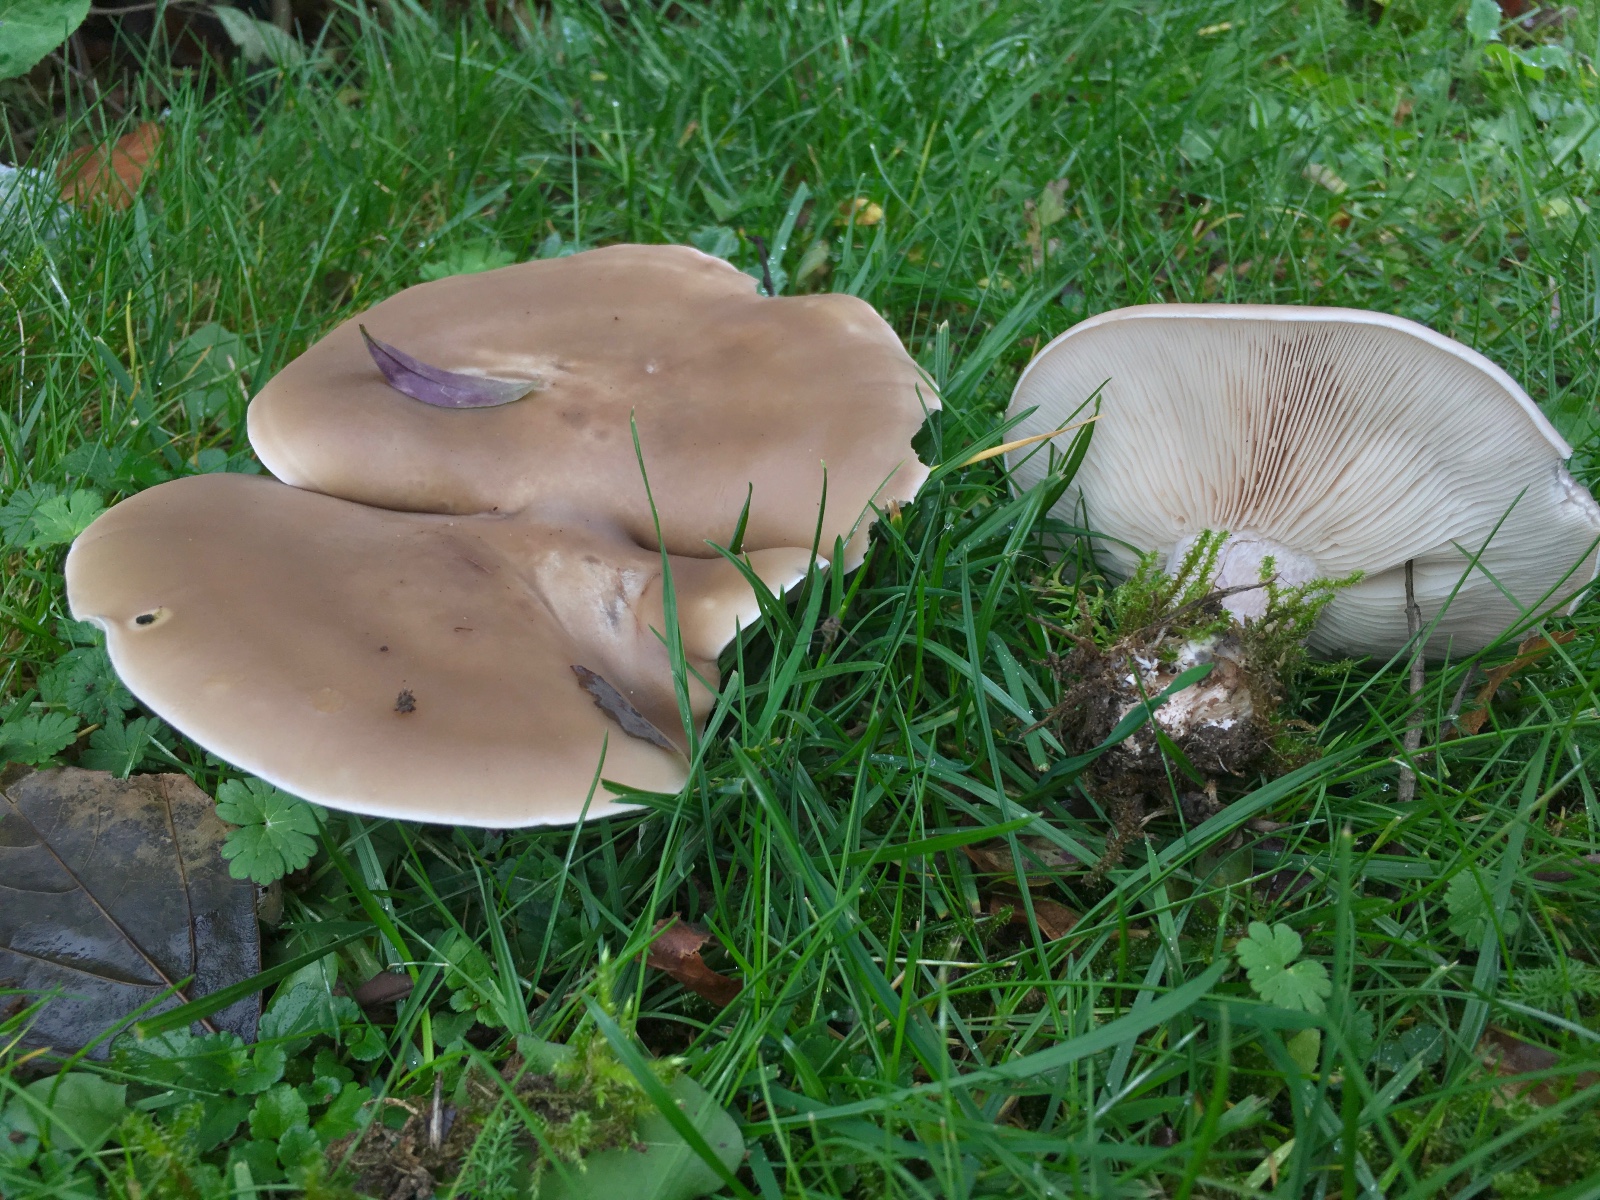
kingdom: Fungi
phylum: Basidiomycota
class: Agaricomycetes
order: Agaricales
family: Tricholomataceae
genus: Lepista
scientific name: Lepista personata
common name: bleg hekseringshat
